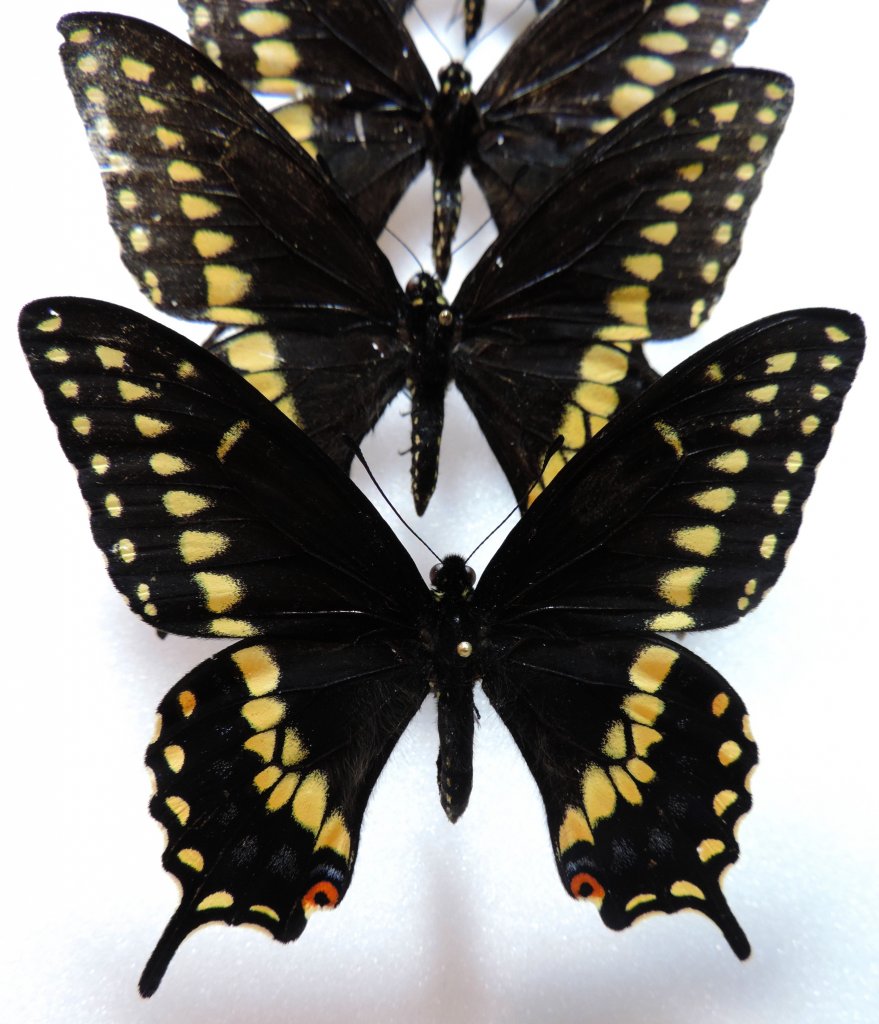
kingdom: Animalia
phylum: Arthropoda
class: Insecta
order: Lepidoptera
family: Papilionidae
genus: Papilio
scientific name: Papilio polyxenes
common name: Black Swallowtail
